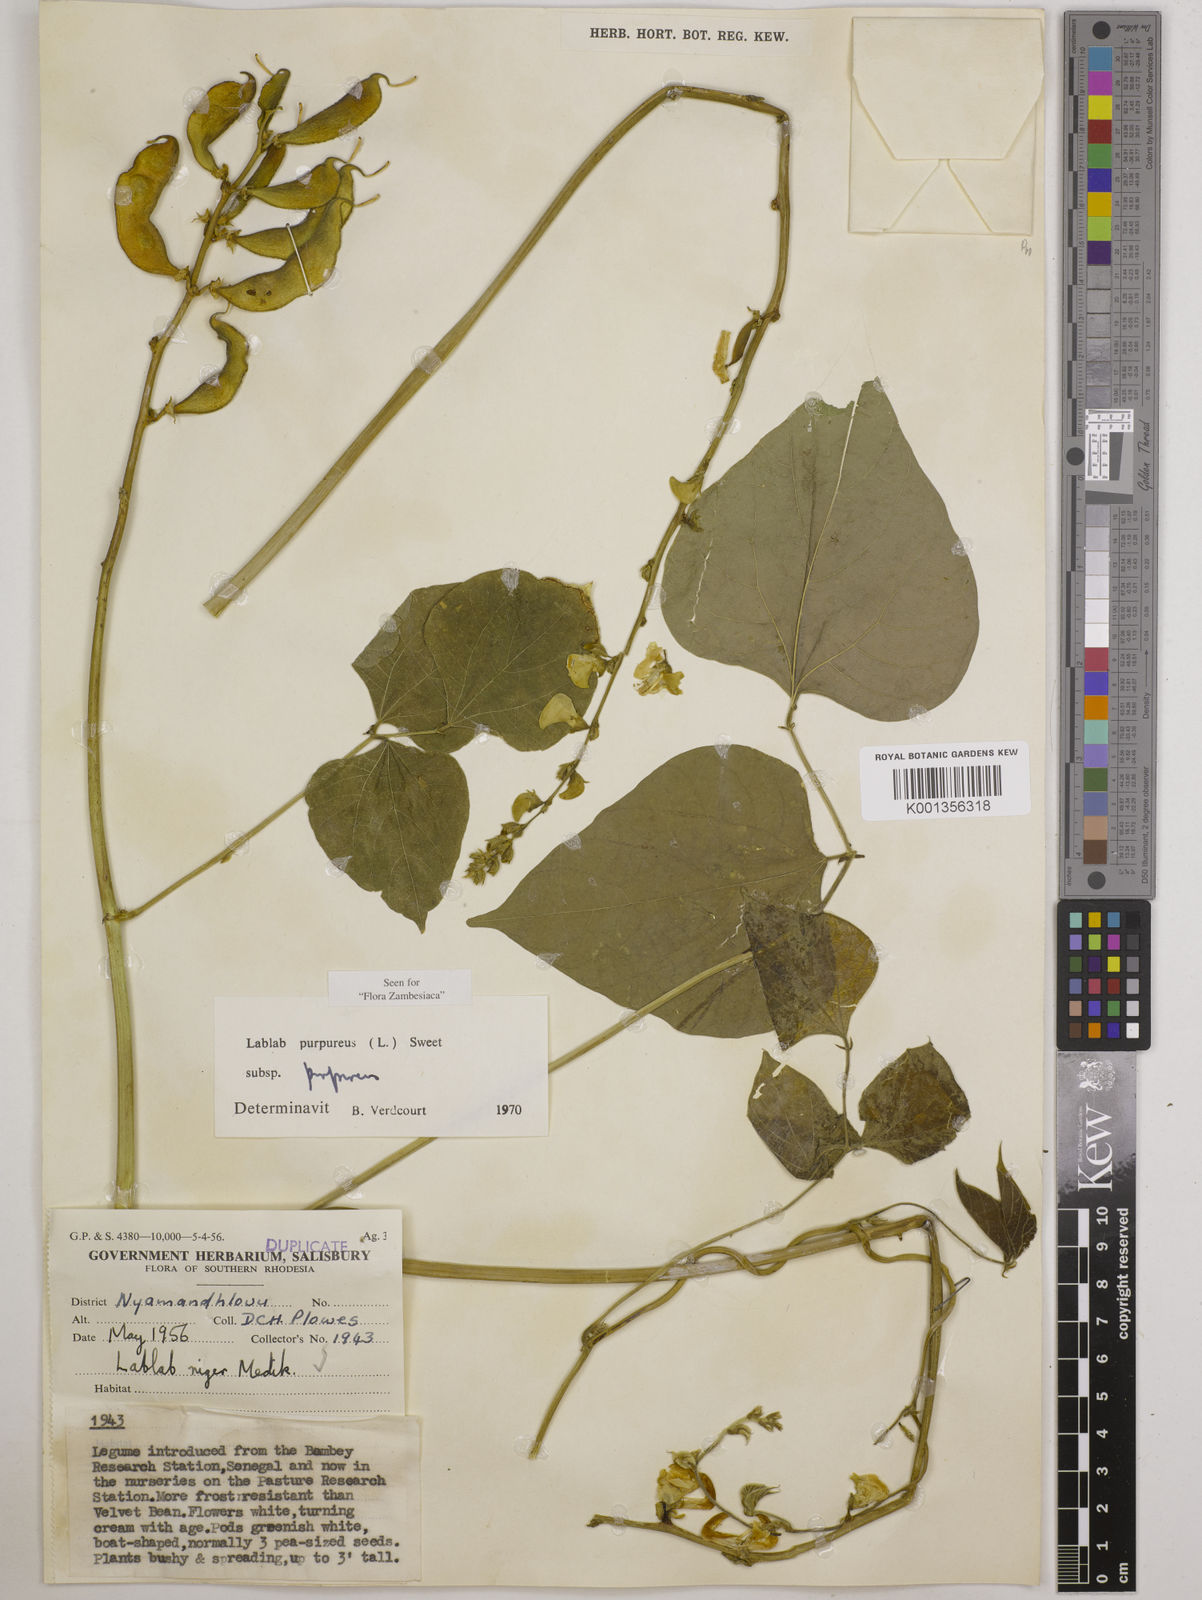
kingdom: Plantae
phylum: Tracheophyta
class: Magnoliopsida
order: Fabales
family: Fabaceae
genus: Lablab
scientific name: Lablab purpureus
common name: Lablab-bean
